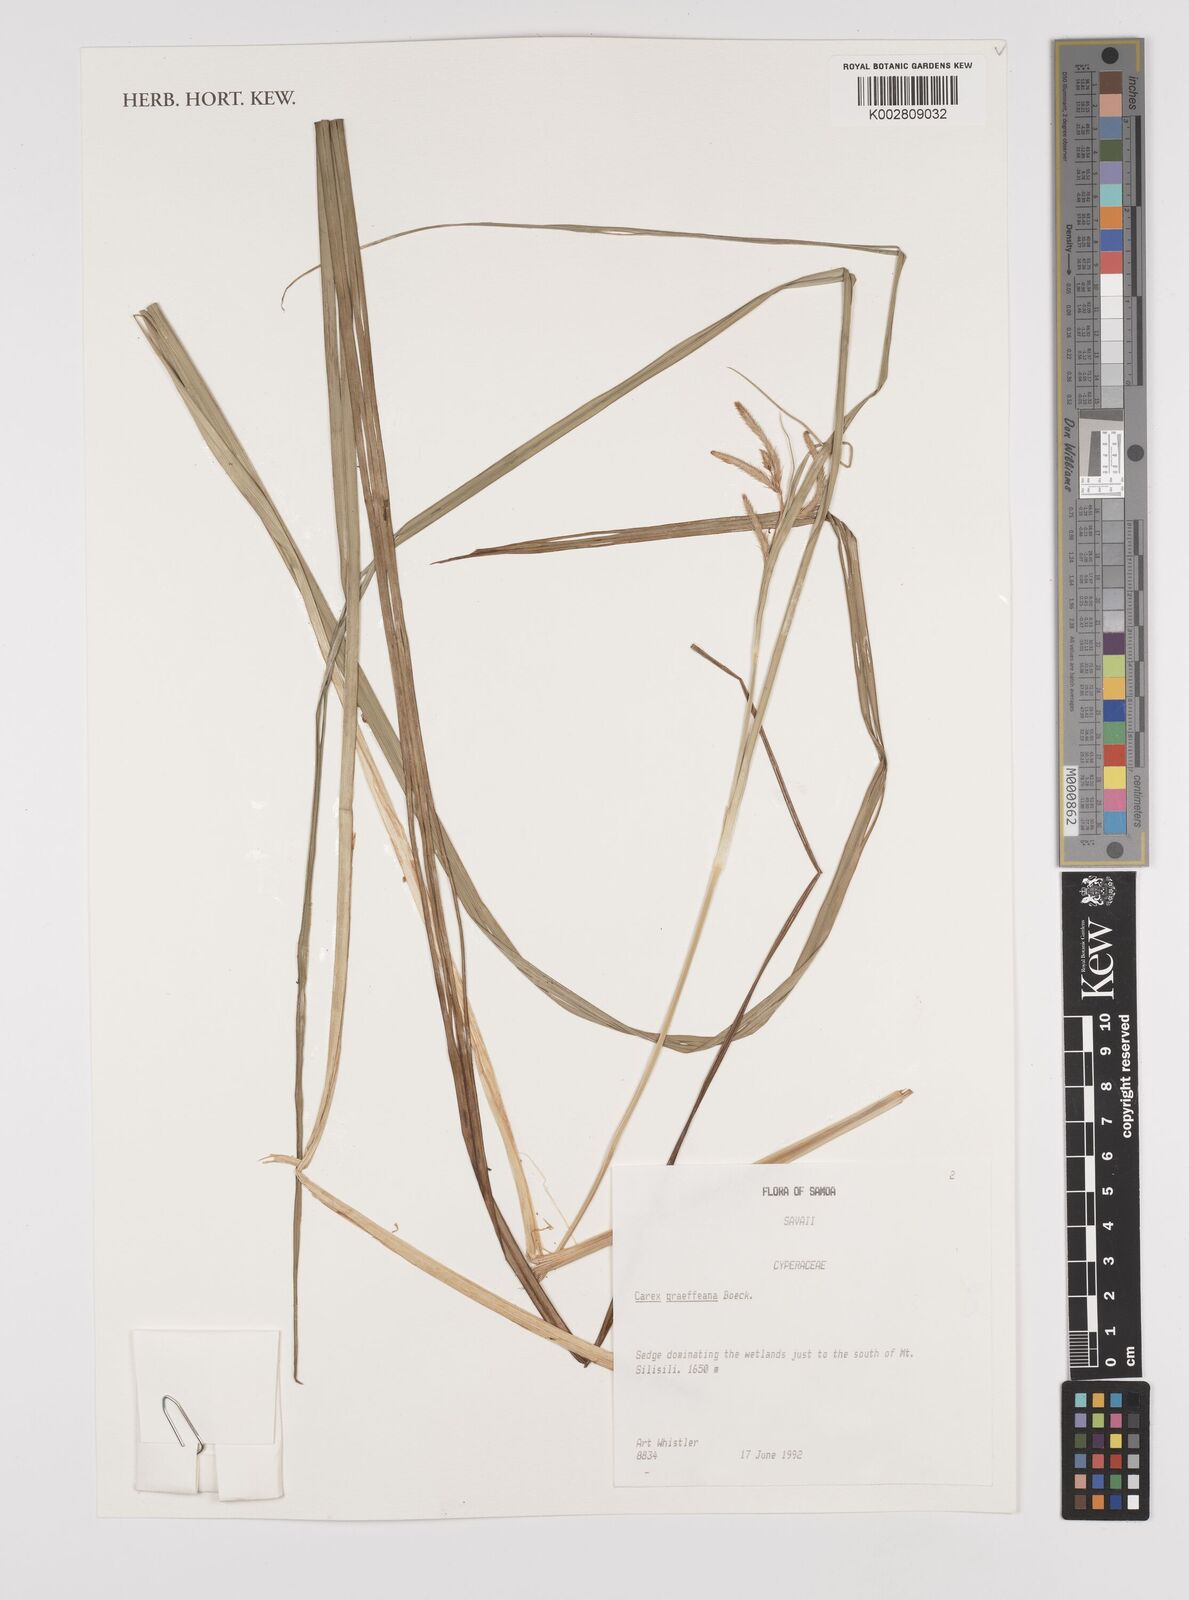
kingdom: Plantae
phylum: Tracheophyta
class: Liliopsida
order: Poales
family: Cyperaceae
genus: Carex
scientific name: Carex graeffeana
